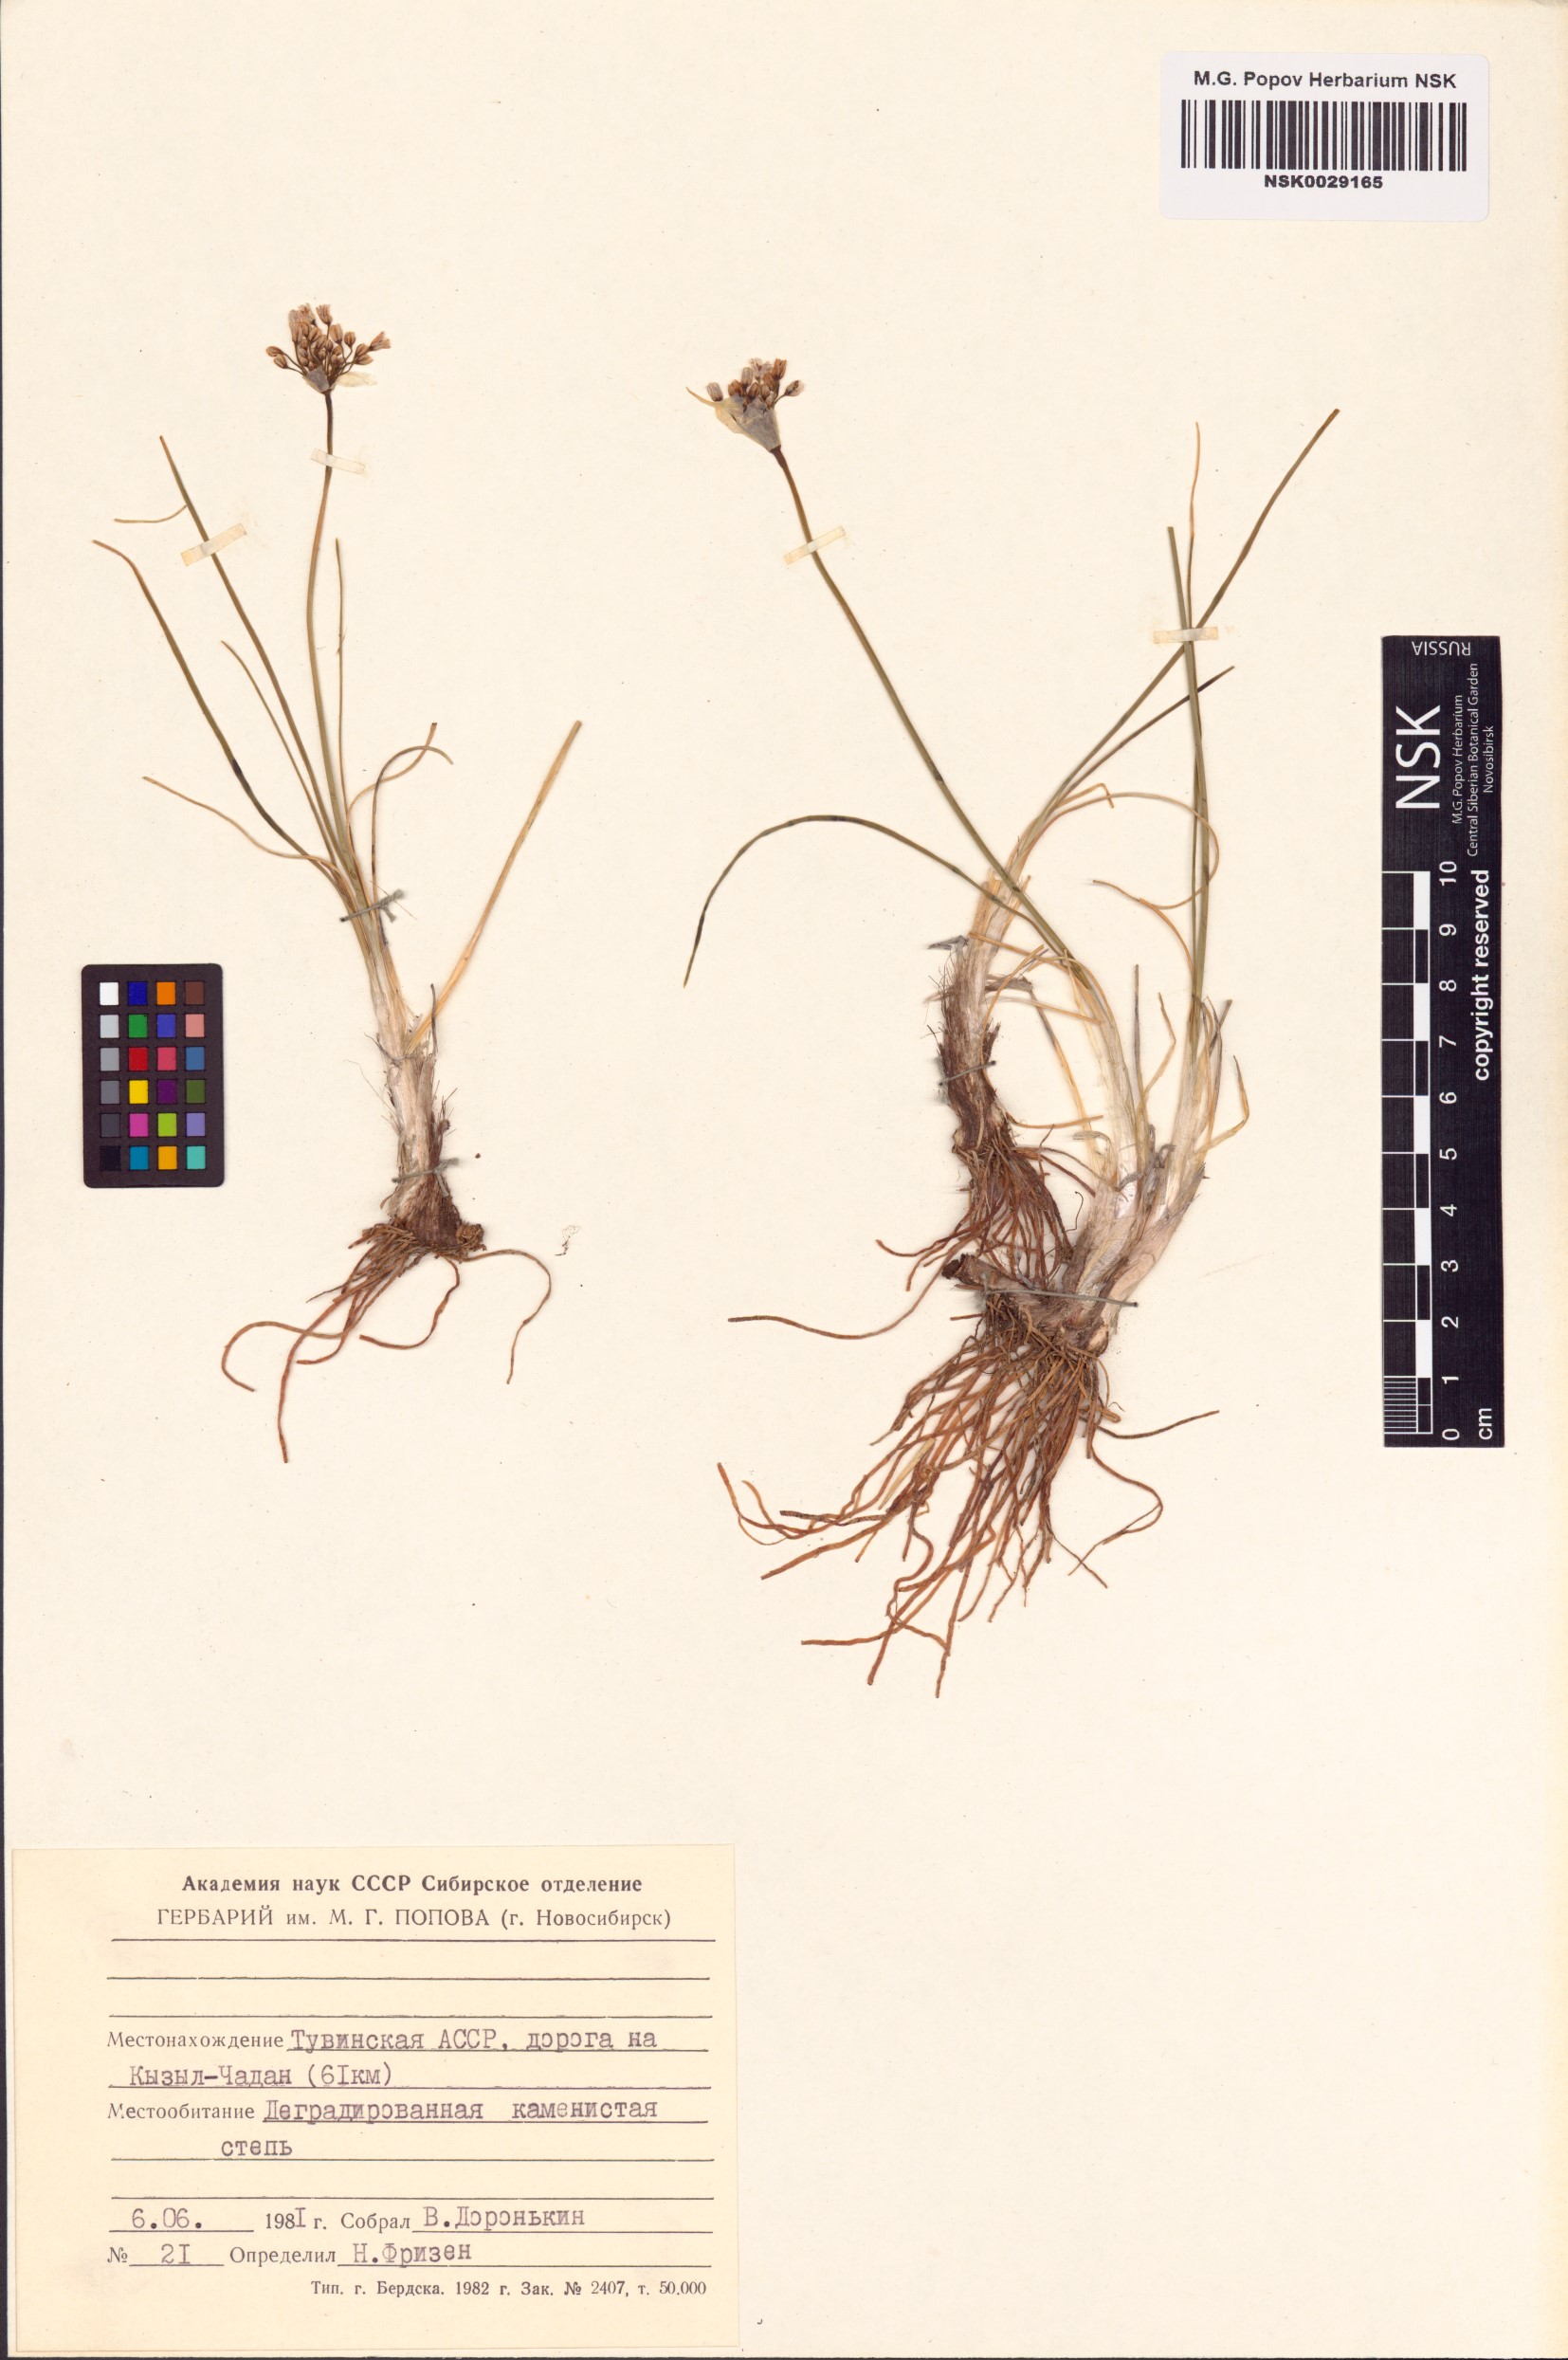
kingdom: Plantae
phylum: Tracheophyta
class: Liliopsida
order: Asparagales
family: Amaryllidaceae
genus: Allium
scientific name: Allium anisopodium
